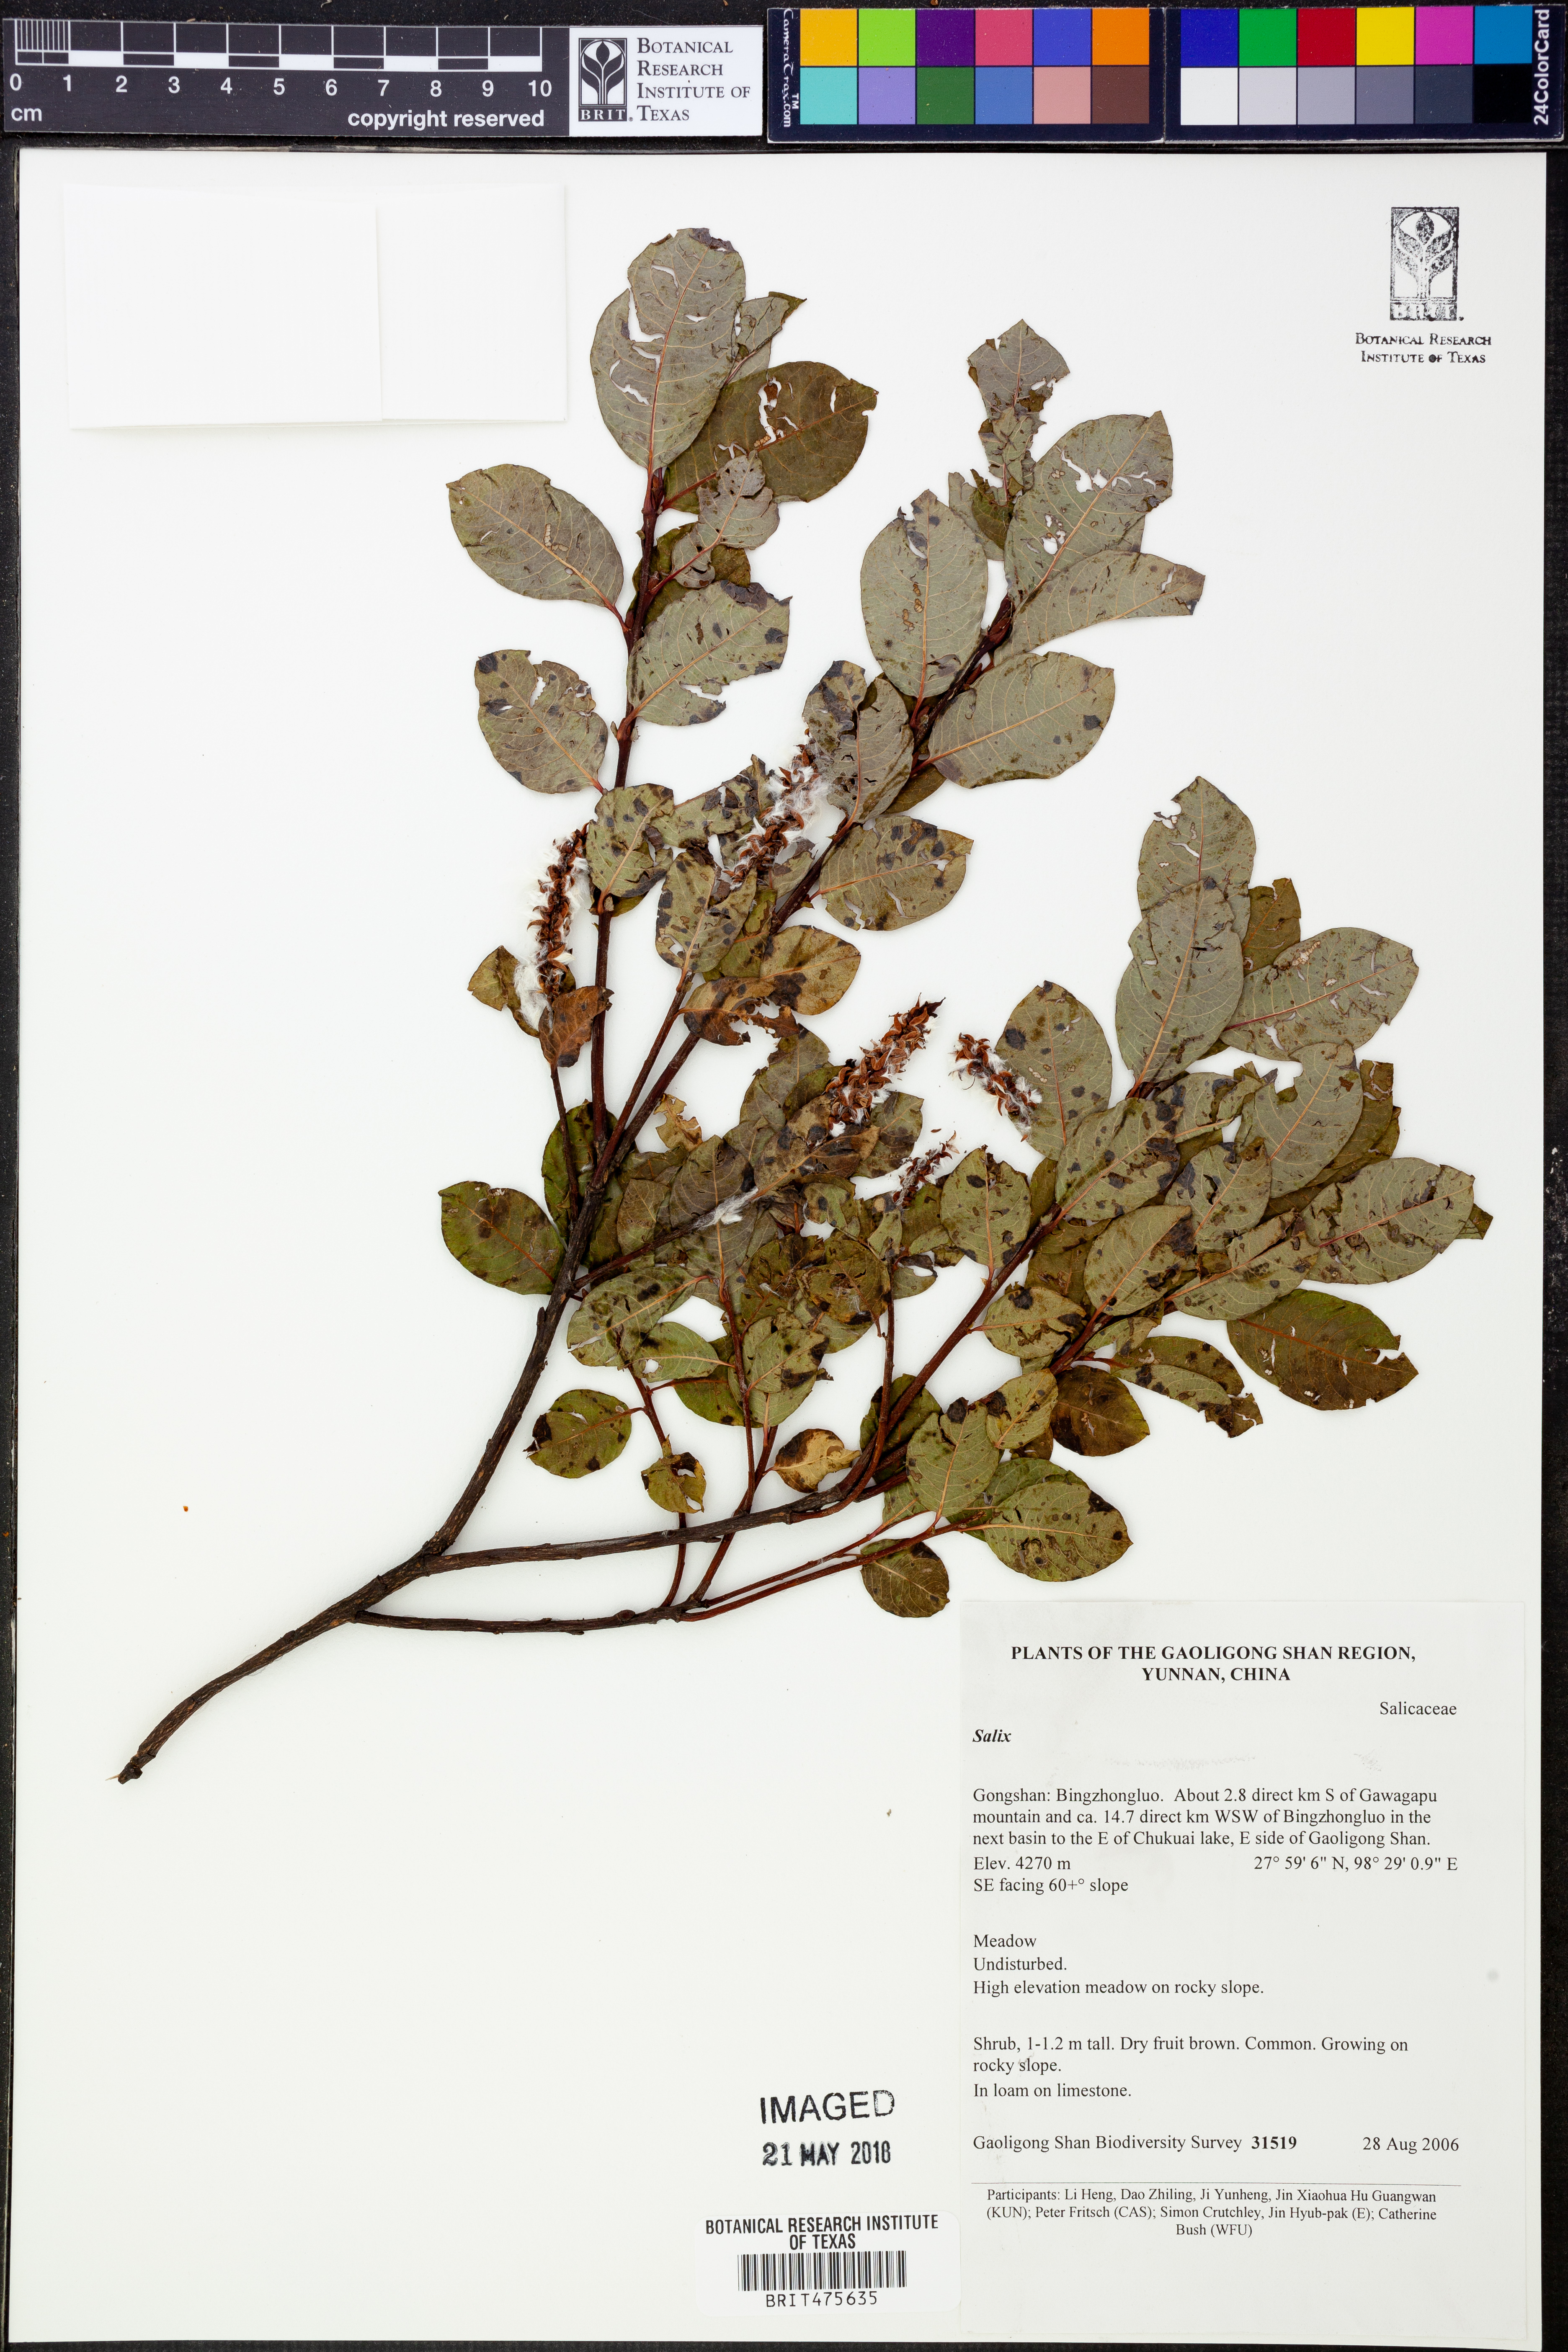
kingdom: Plantae
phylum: Tracheophyta
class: Magnoliopsida
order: Malpighiales
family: Salicaceae
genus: Salix
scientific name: Salix
